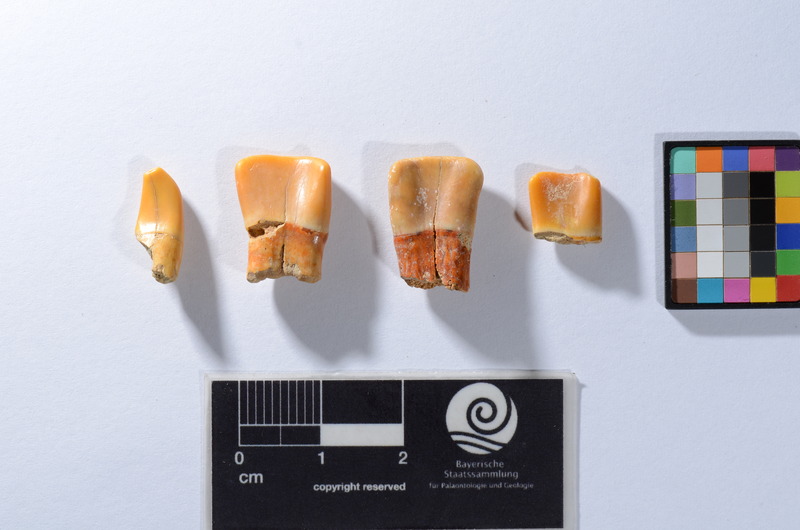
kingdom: Animalia
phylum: Chordata
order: Perciformes
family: Sparidae
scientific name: Sparidae
